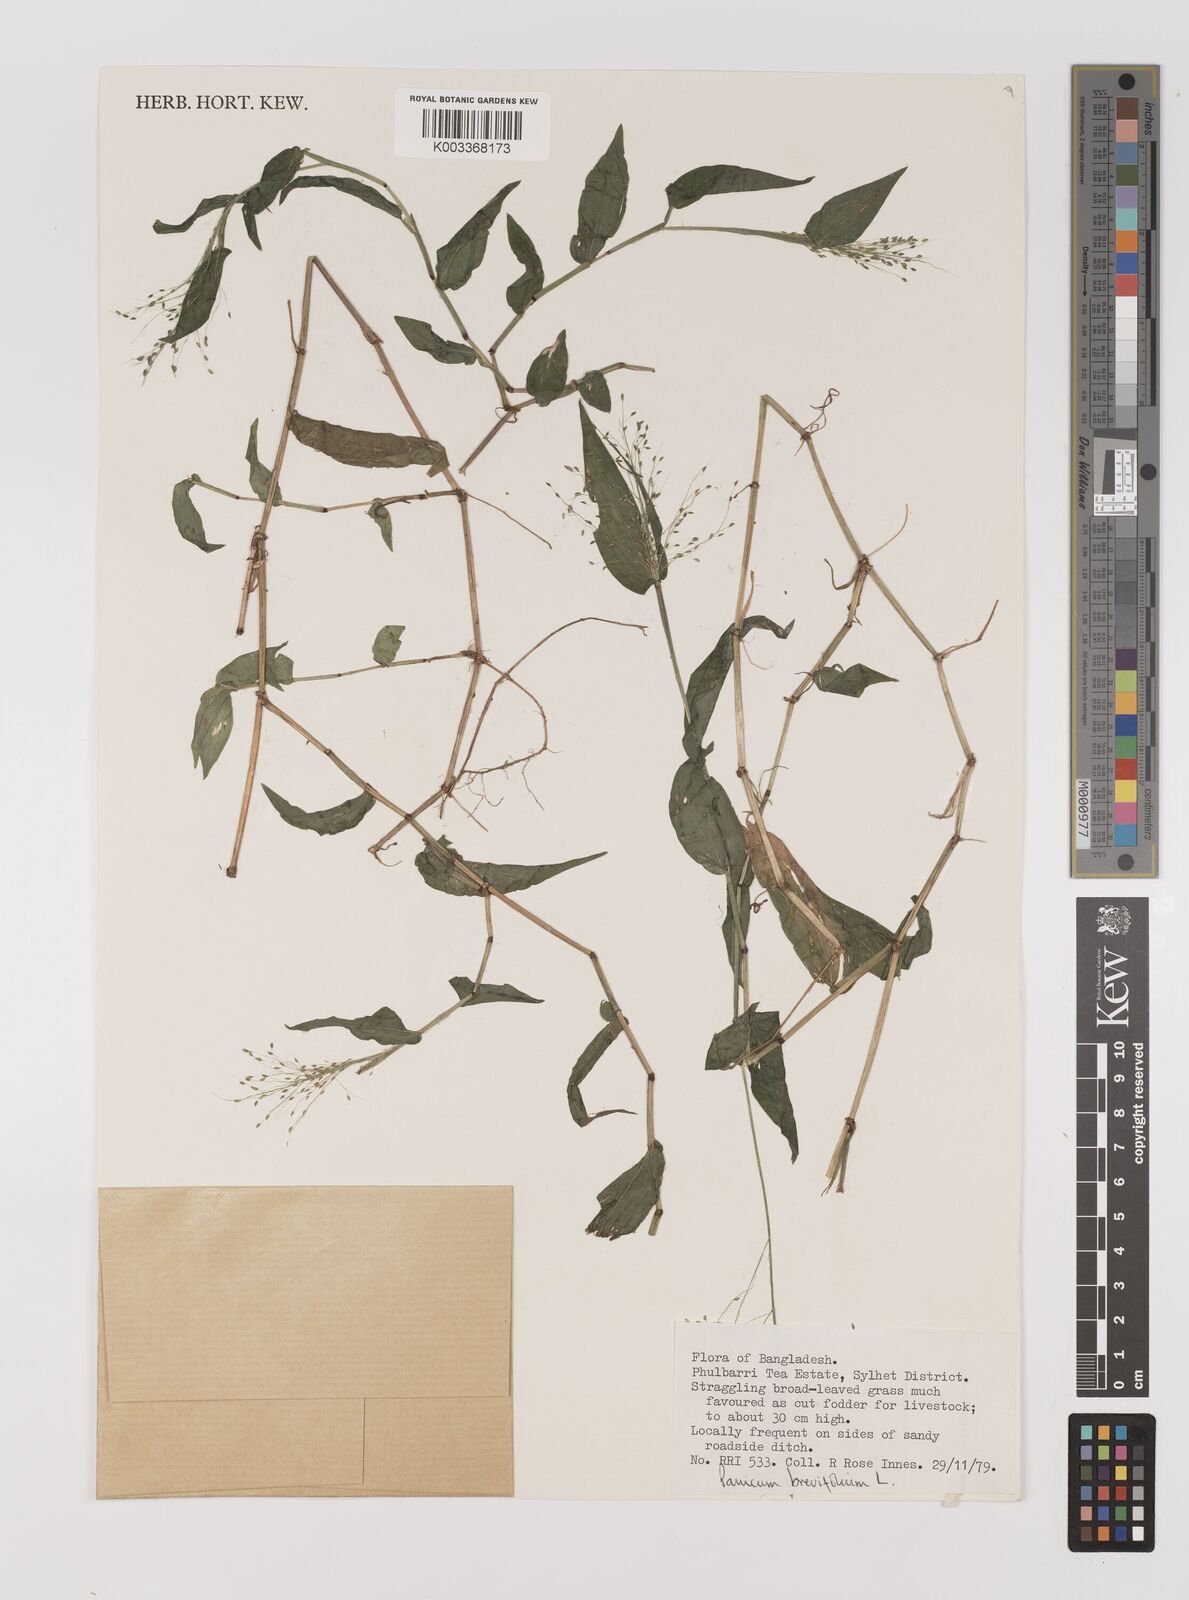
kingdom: Plantae
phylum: Tracheophyta
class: Liliopsida
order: Poales
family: Poaceae
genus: Panicum
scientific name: Panicum brevifolium
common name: Shortleaf panic grass
